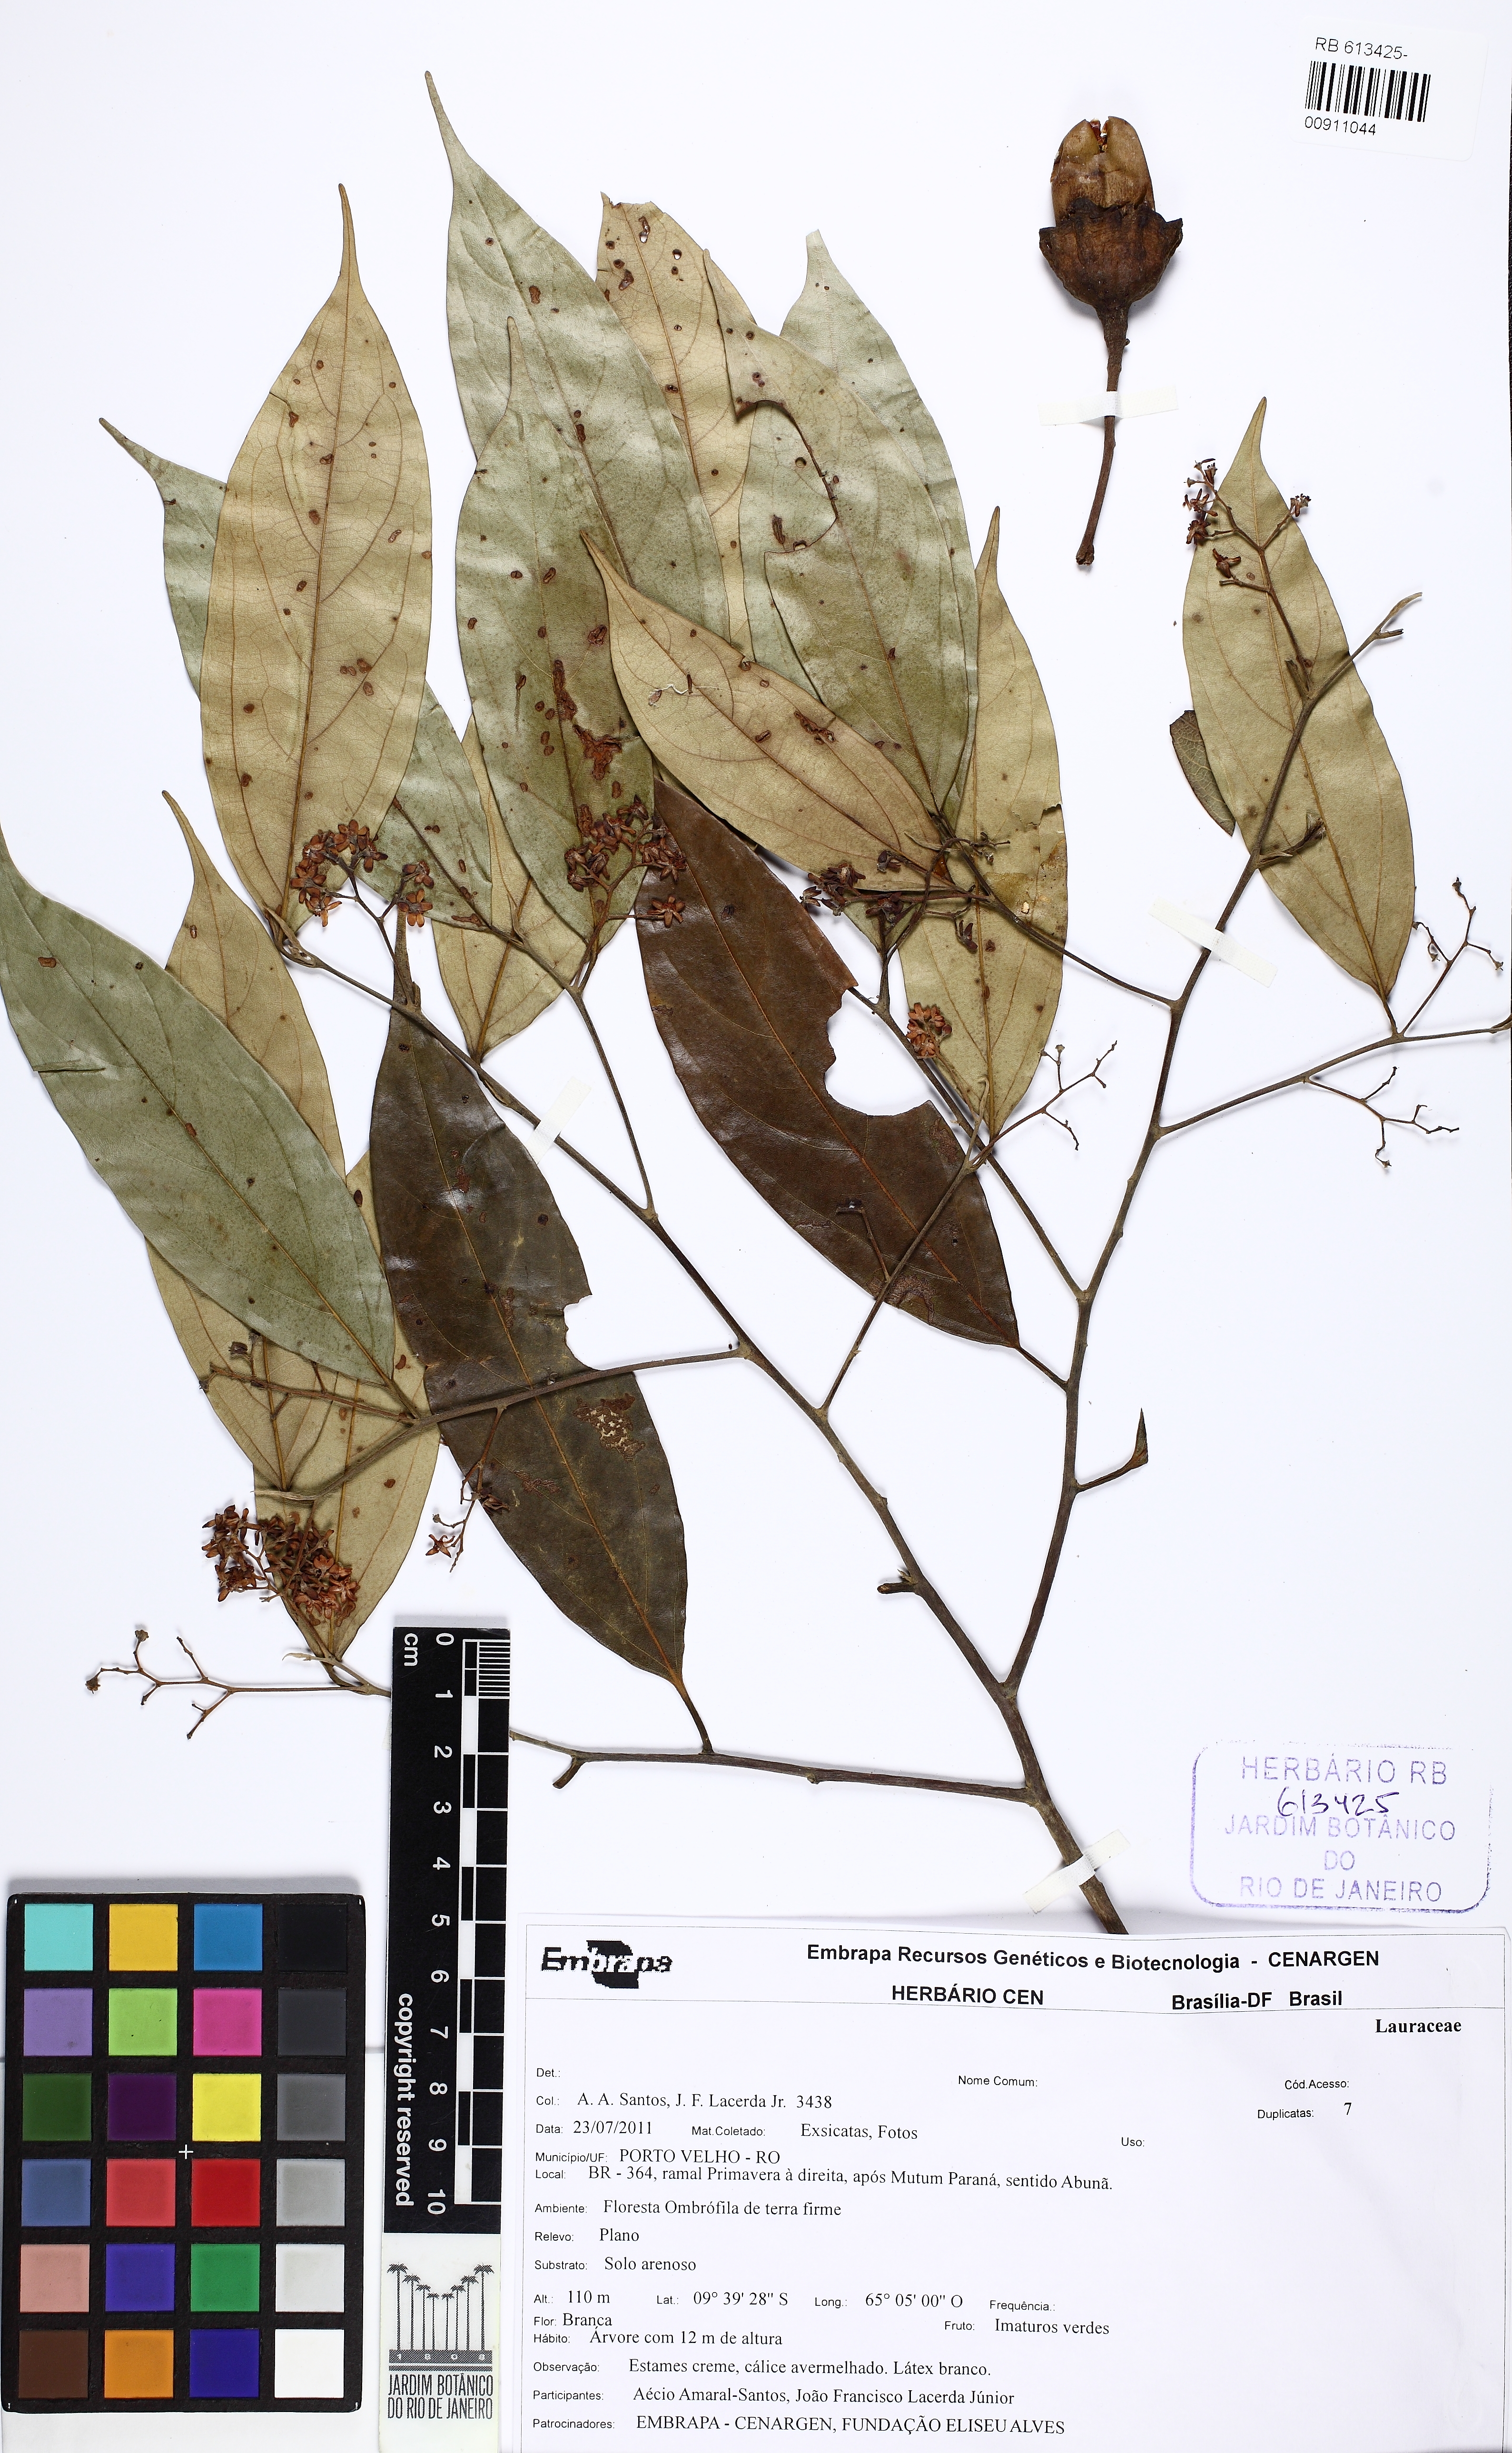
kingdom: Plantae
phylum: Tracheophyta
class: Magnoliopsida
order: Laurales
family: Lauraceae
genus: Nectandra
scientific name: Nectandra
